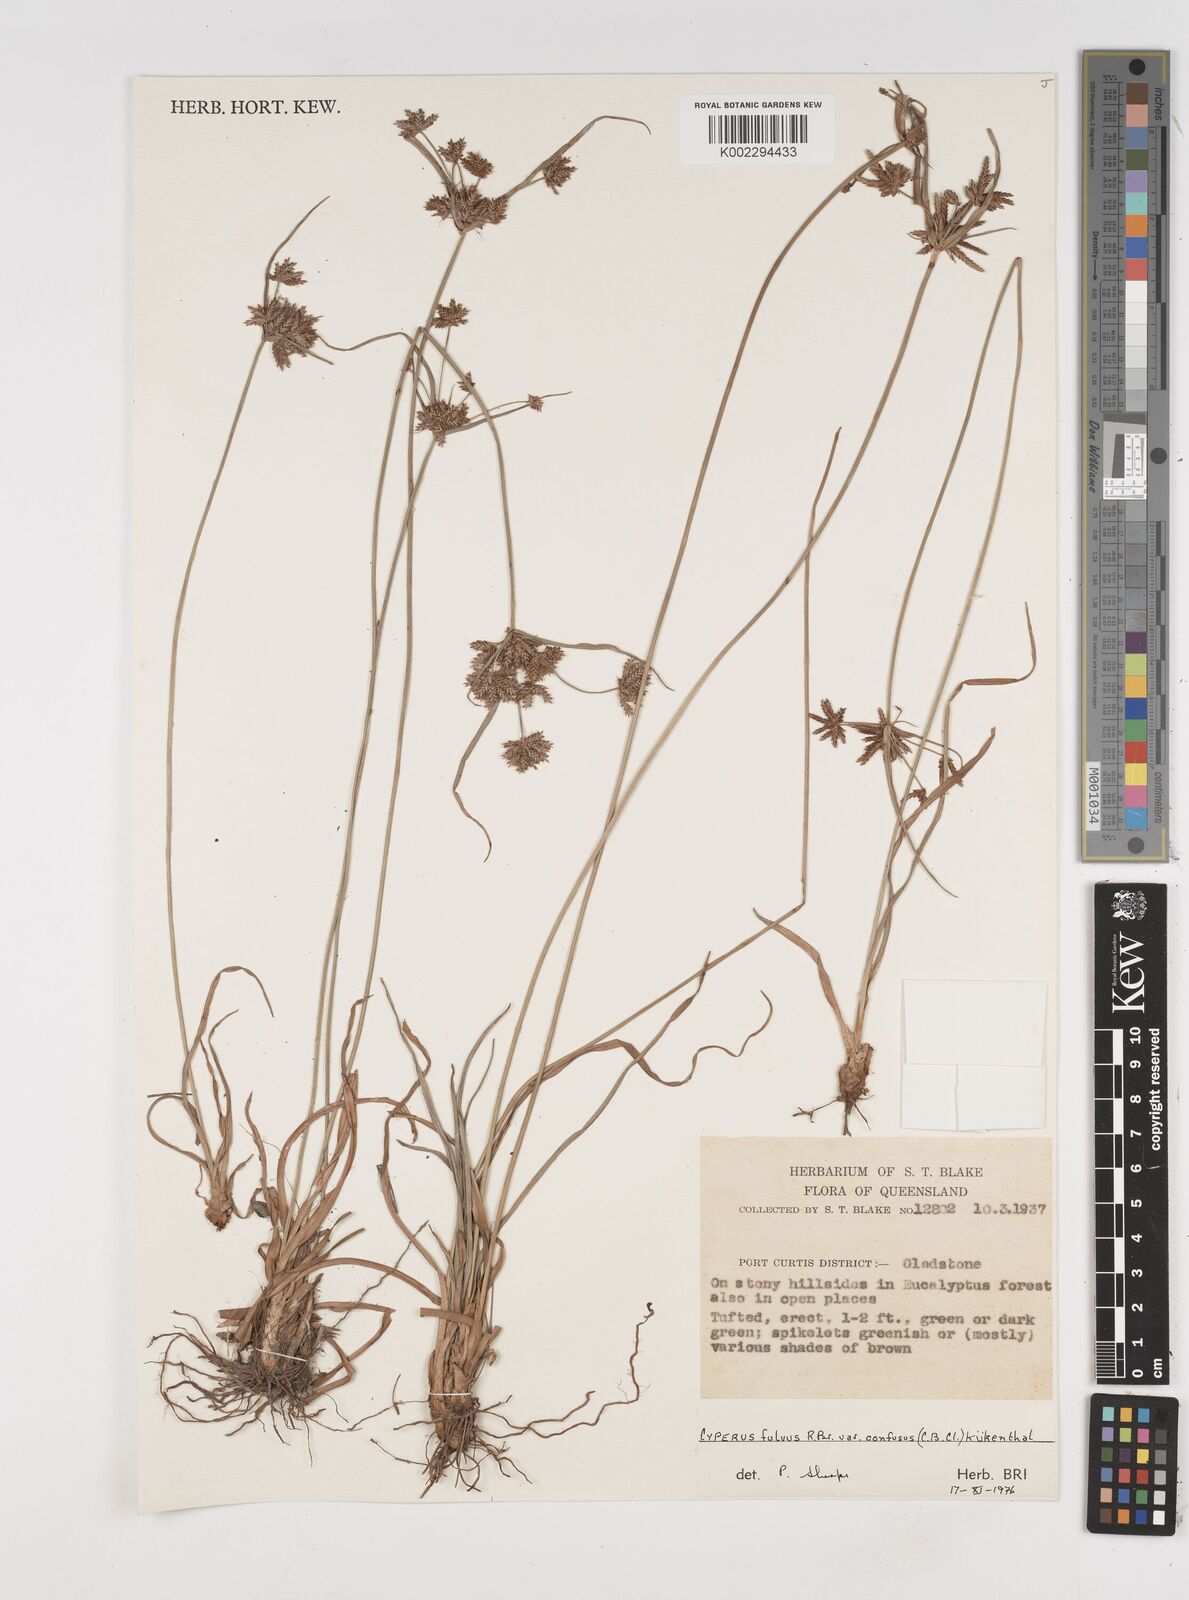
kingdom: Plantae
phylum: Tracheophyta
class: Liliopsida
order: Poales
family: Cyperaceae
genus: Cyperus
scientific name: Cyperus fulvus
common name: Sticky sedge
